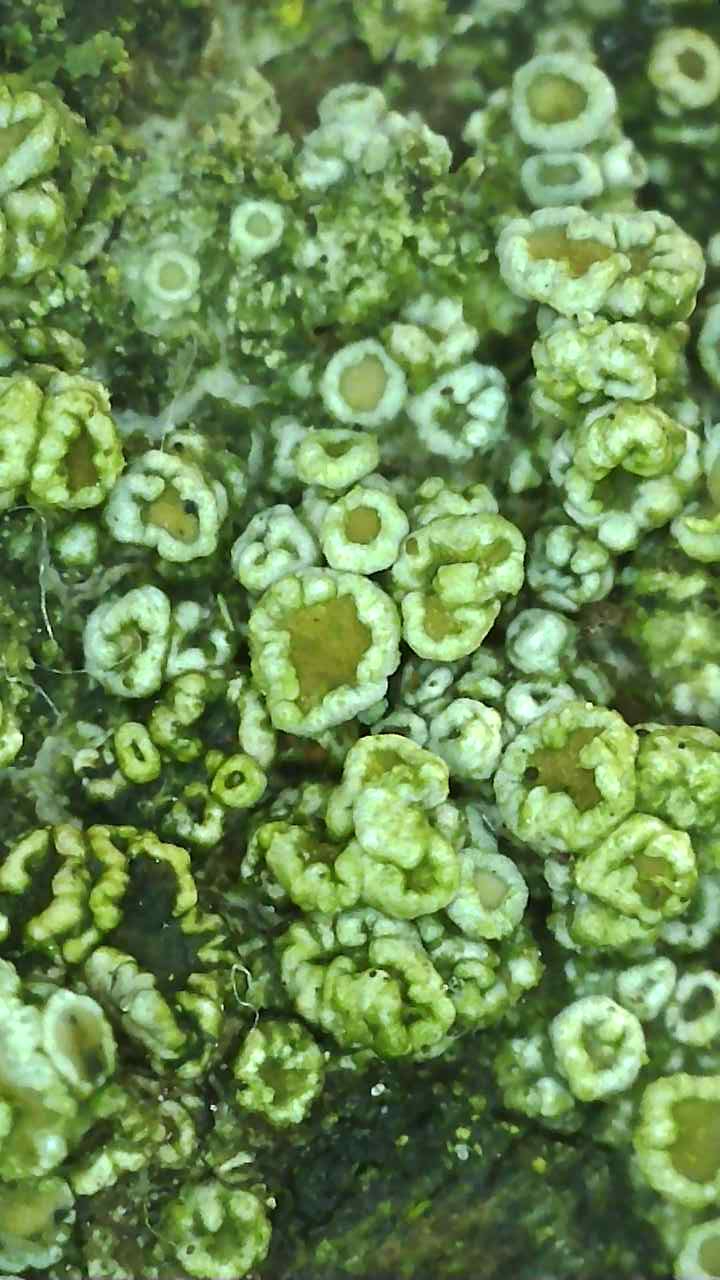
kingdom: Fungi
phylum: Ascomycota
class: Lecanoromycetes
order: Lecanorales
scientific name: Lecanorales
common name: skivelavordenen
